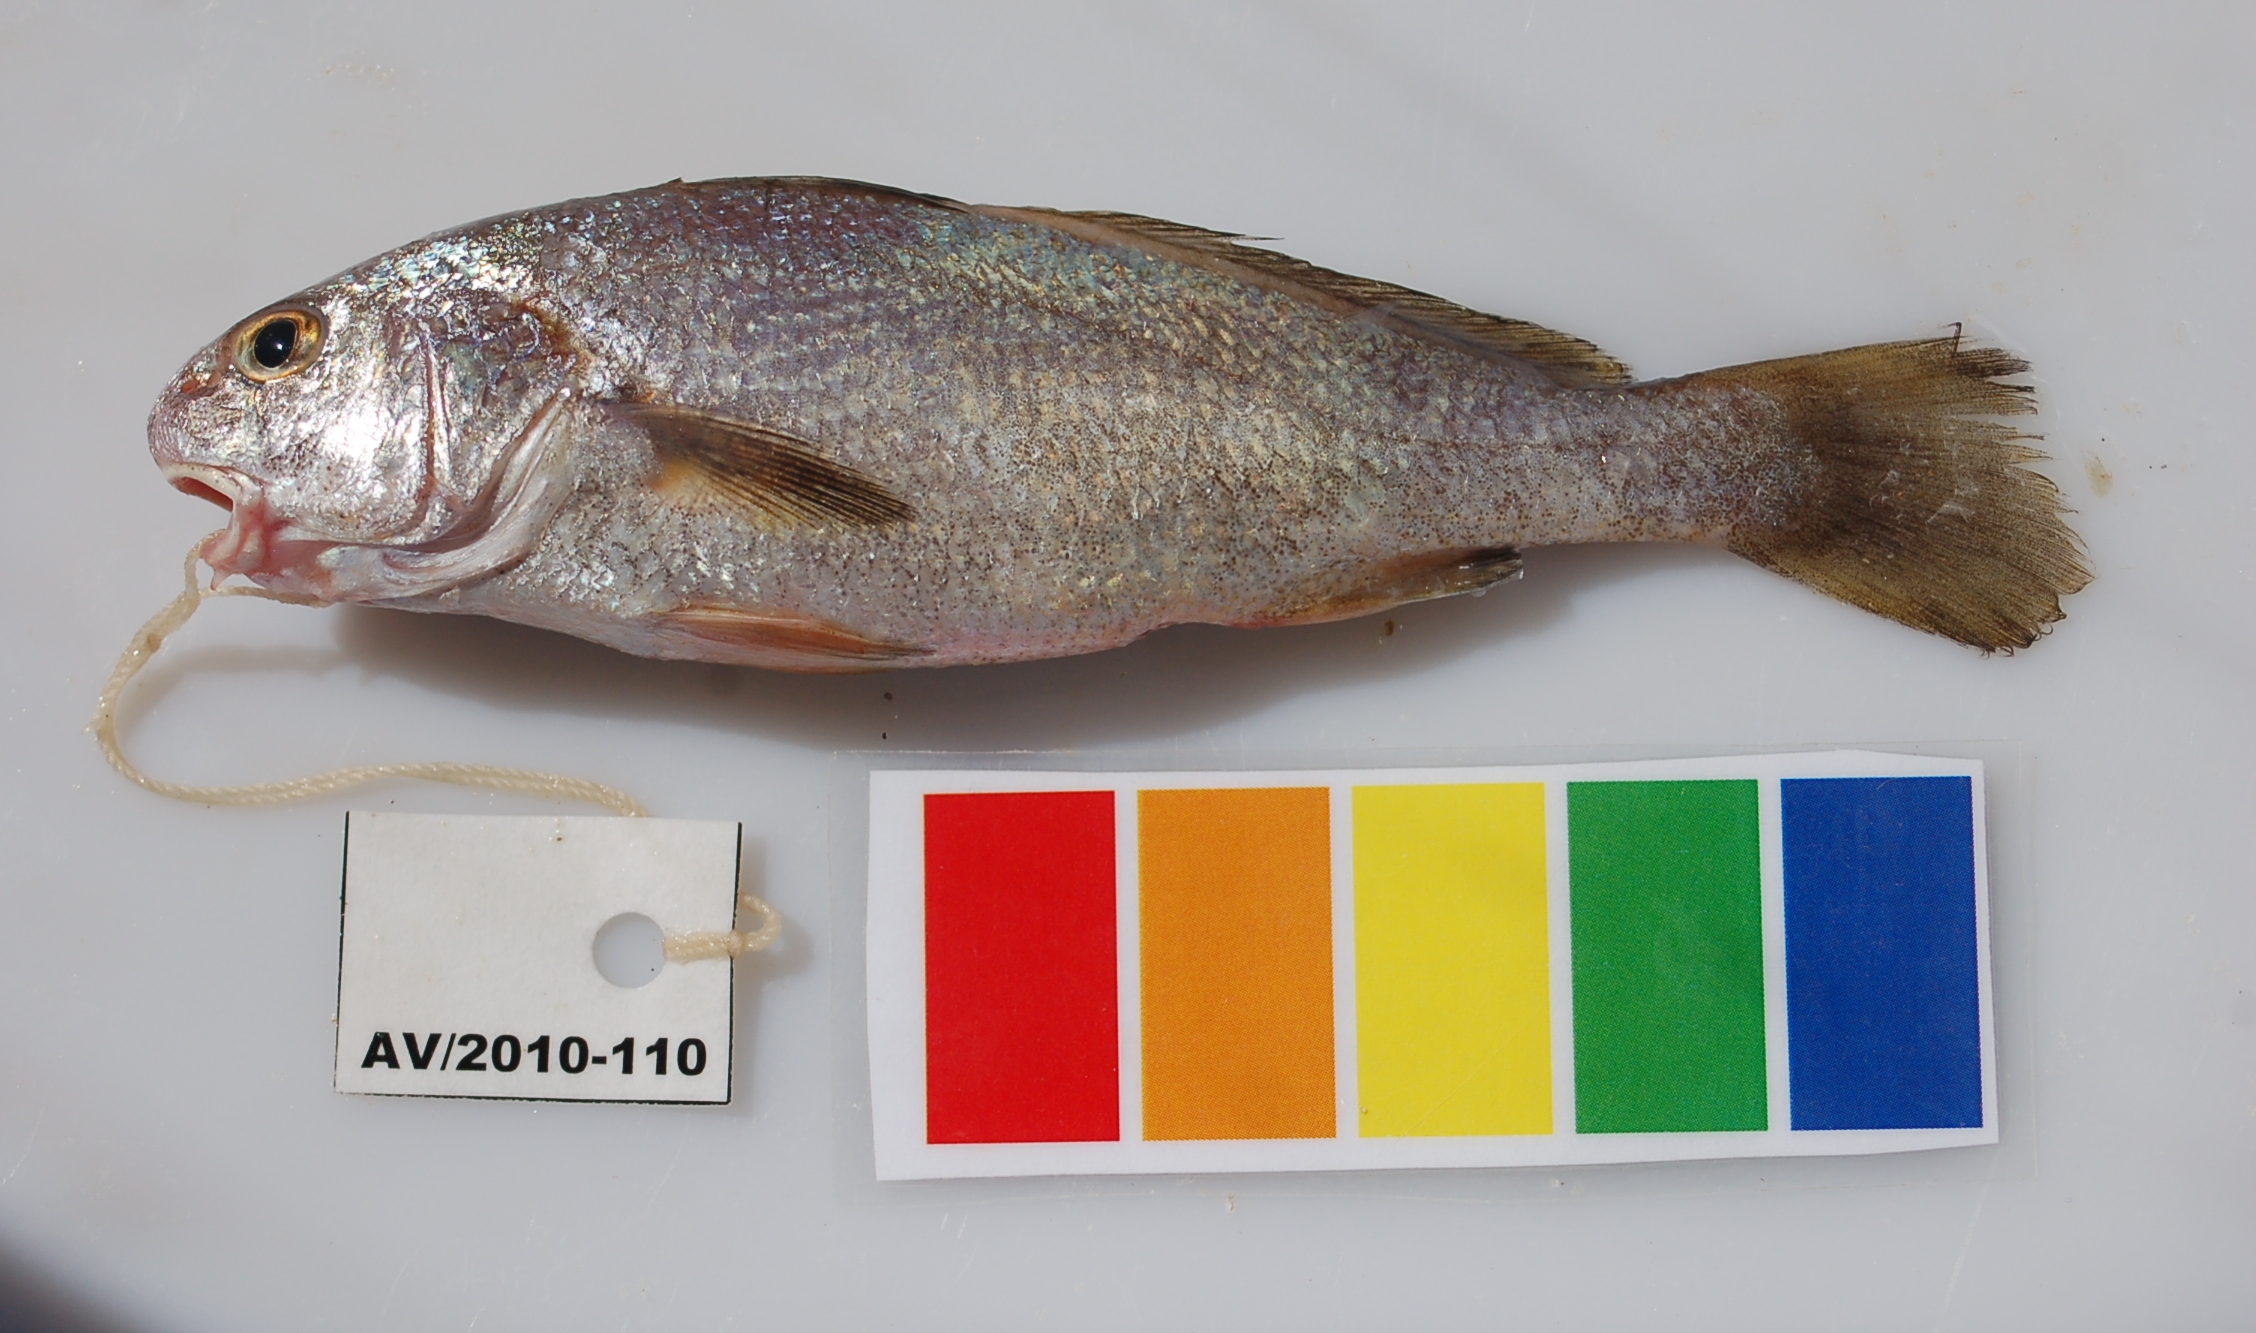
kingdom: Animalia
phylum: Chordata
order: Perciformes
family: Sciaenidae
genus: Johnius
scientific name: Johnius fuscolineatus
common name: Bellfish
